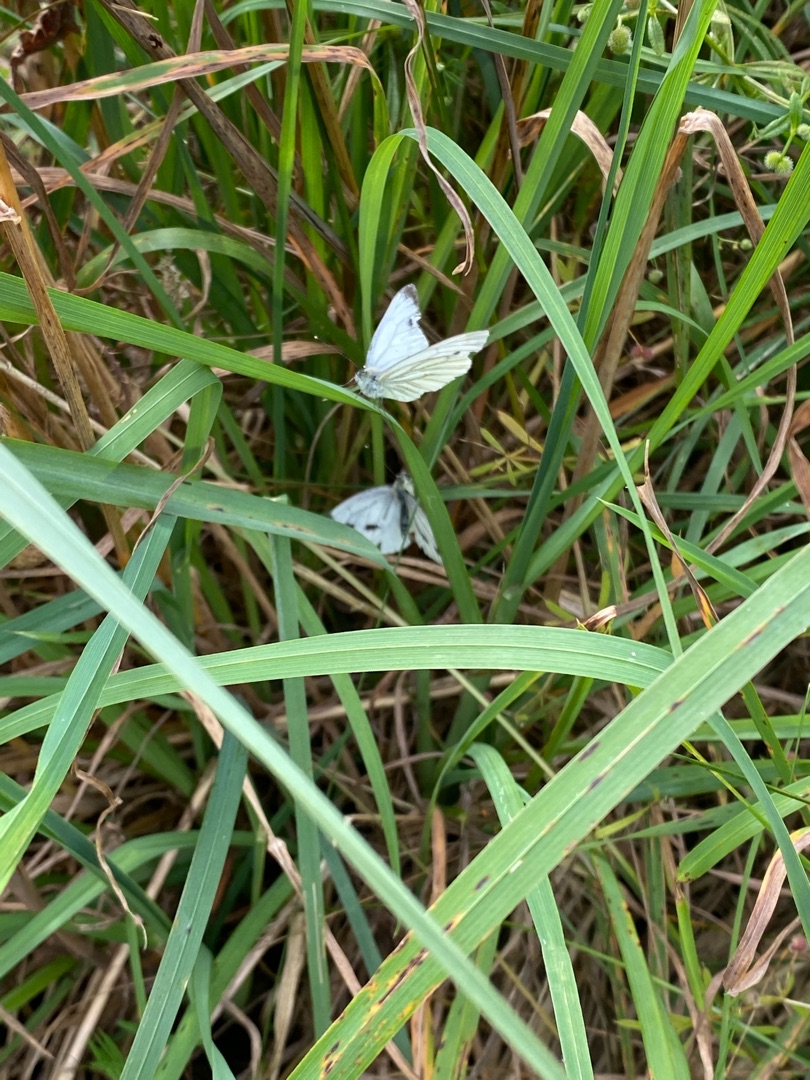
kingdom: Animalia
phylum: Arthropoda
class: Insecta
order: Lepidoptera
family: Pieridae
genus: Pieris
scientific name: Pieris napi
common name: Grønåret kålsommerfugl
